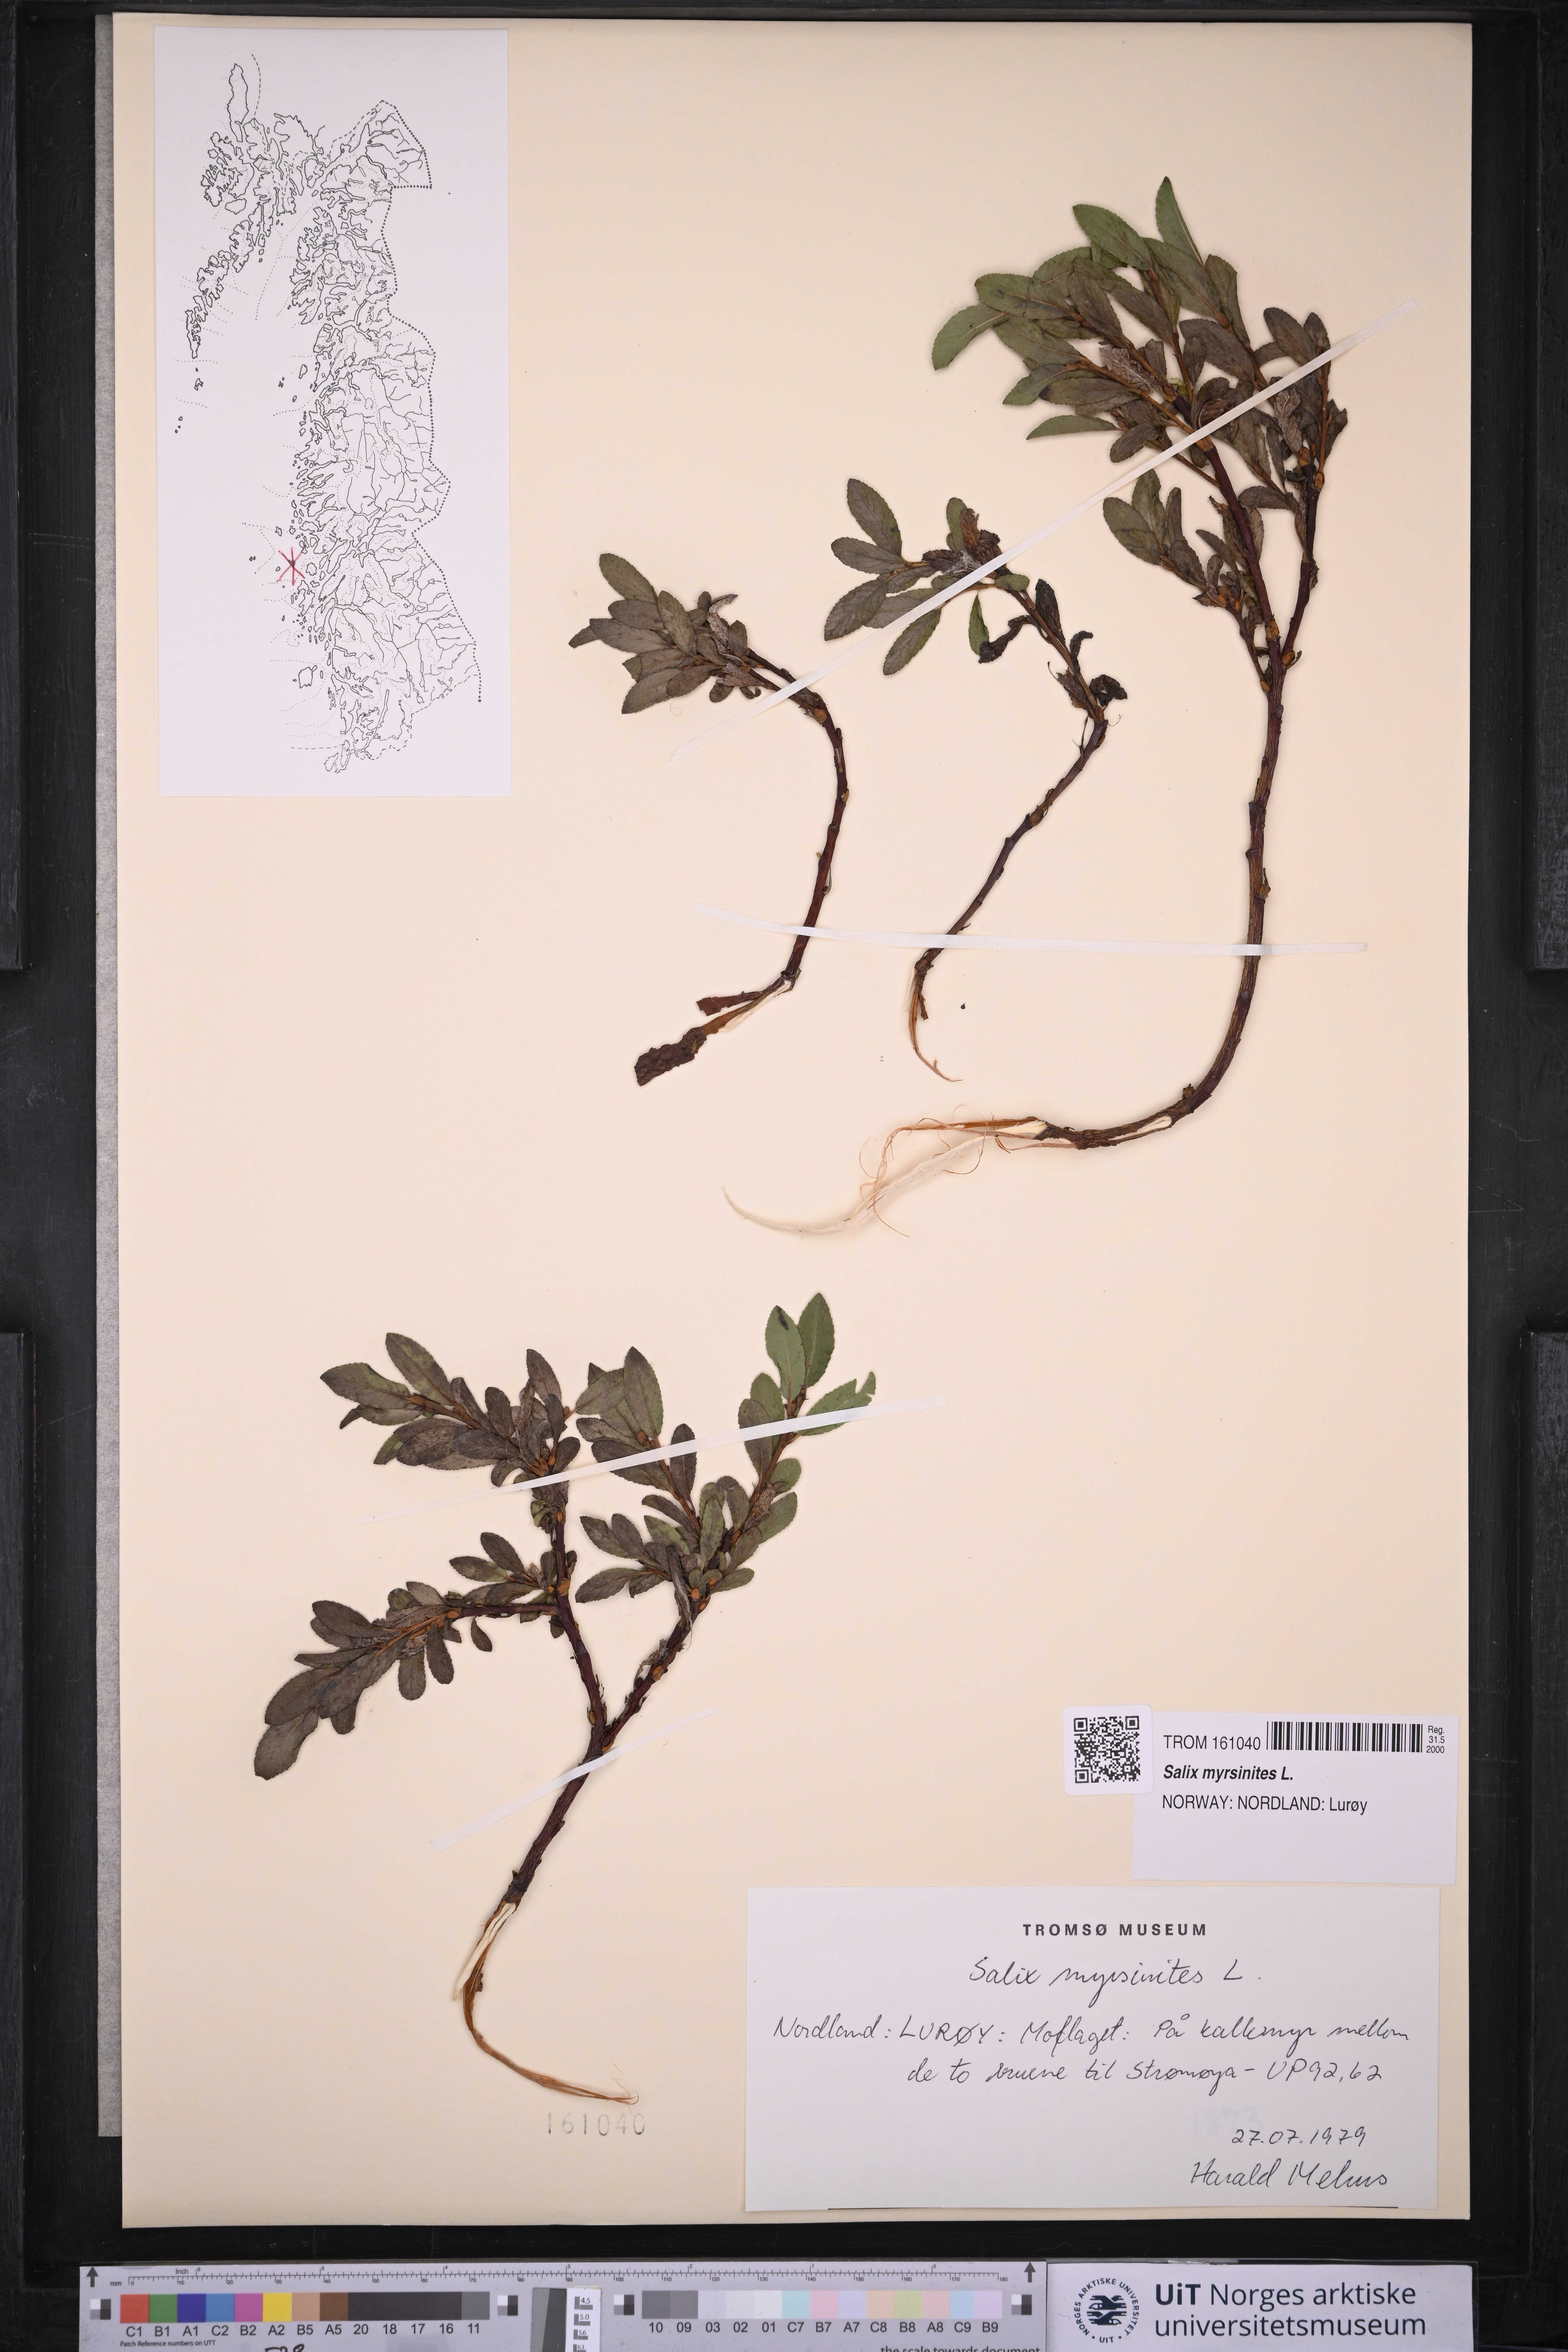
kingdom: Plantae
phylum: Tracheophyta
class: Magnoliopsida
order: Malpighiales
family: Salicaceae
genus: Salix
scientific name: Salix myrsinites
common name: Myrtle willow
